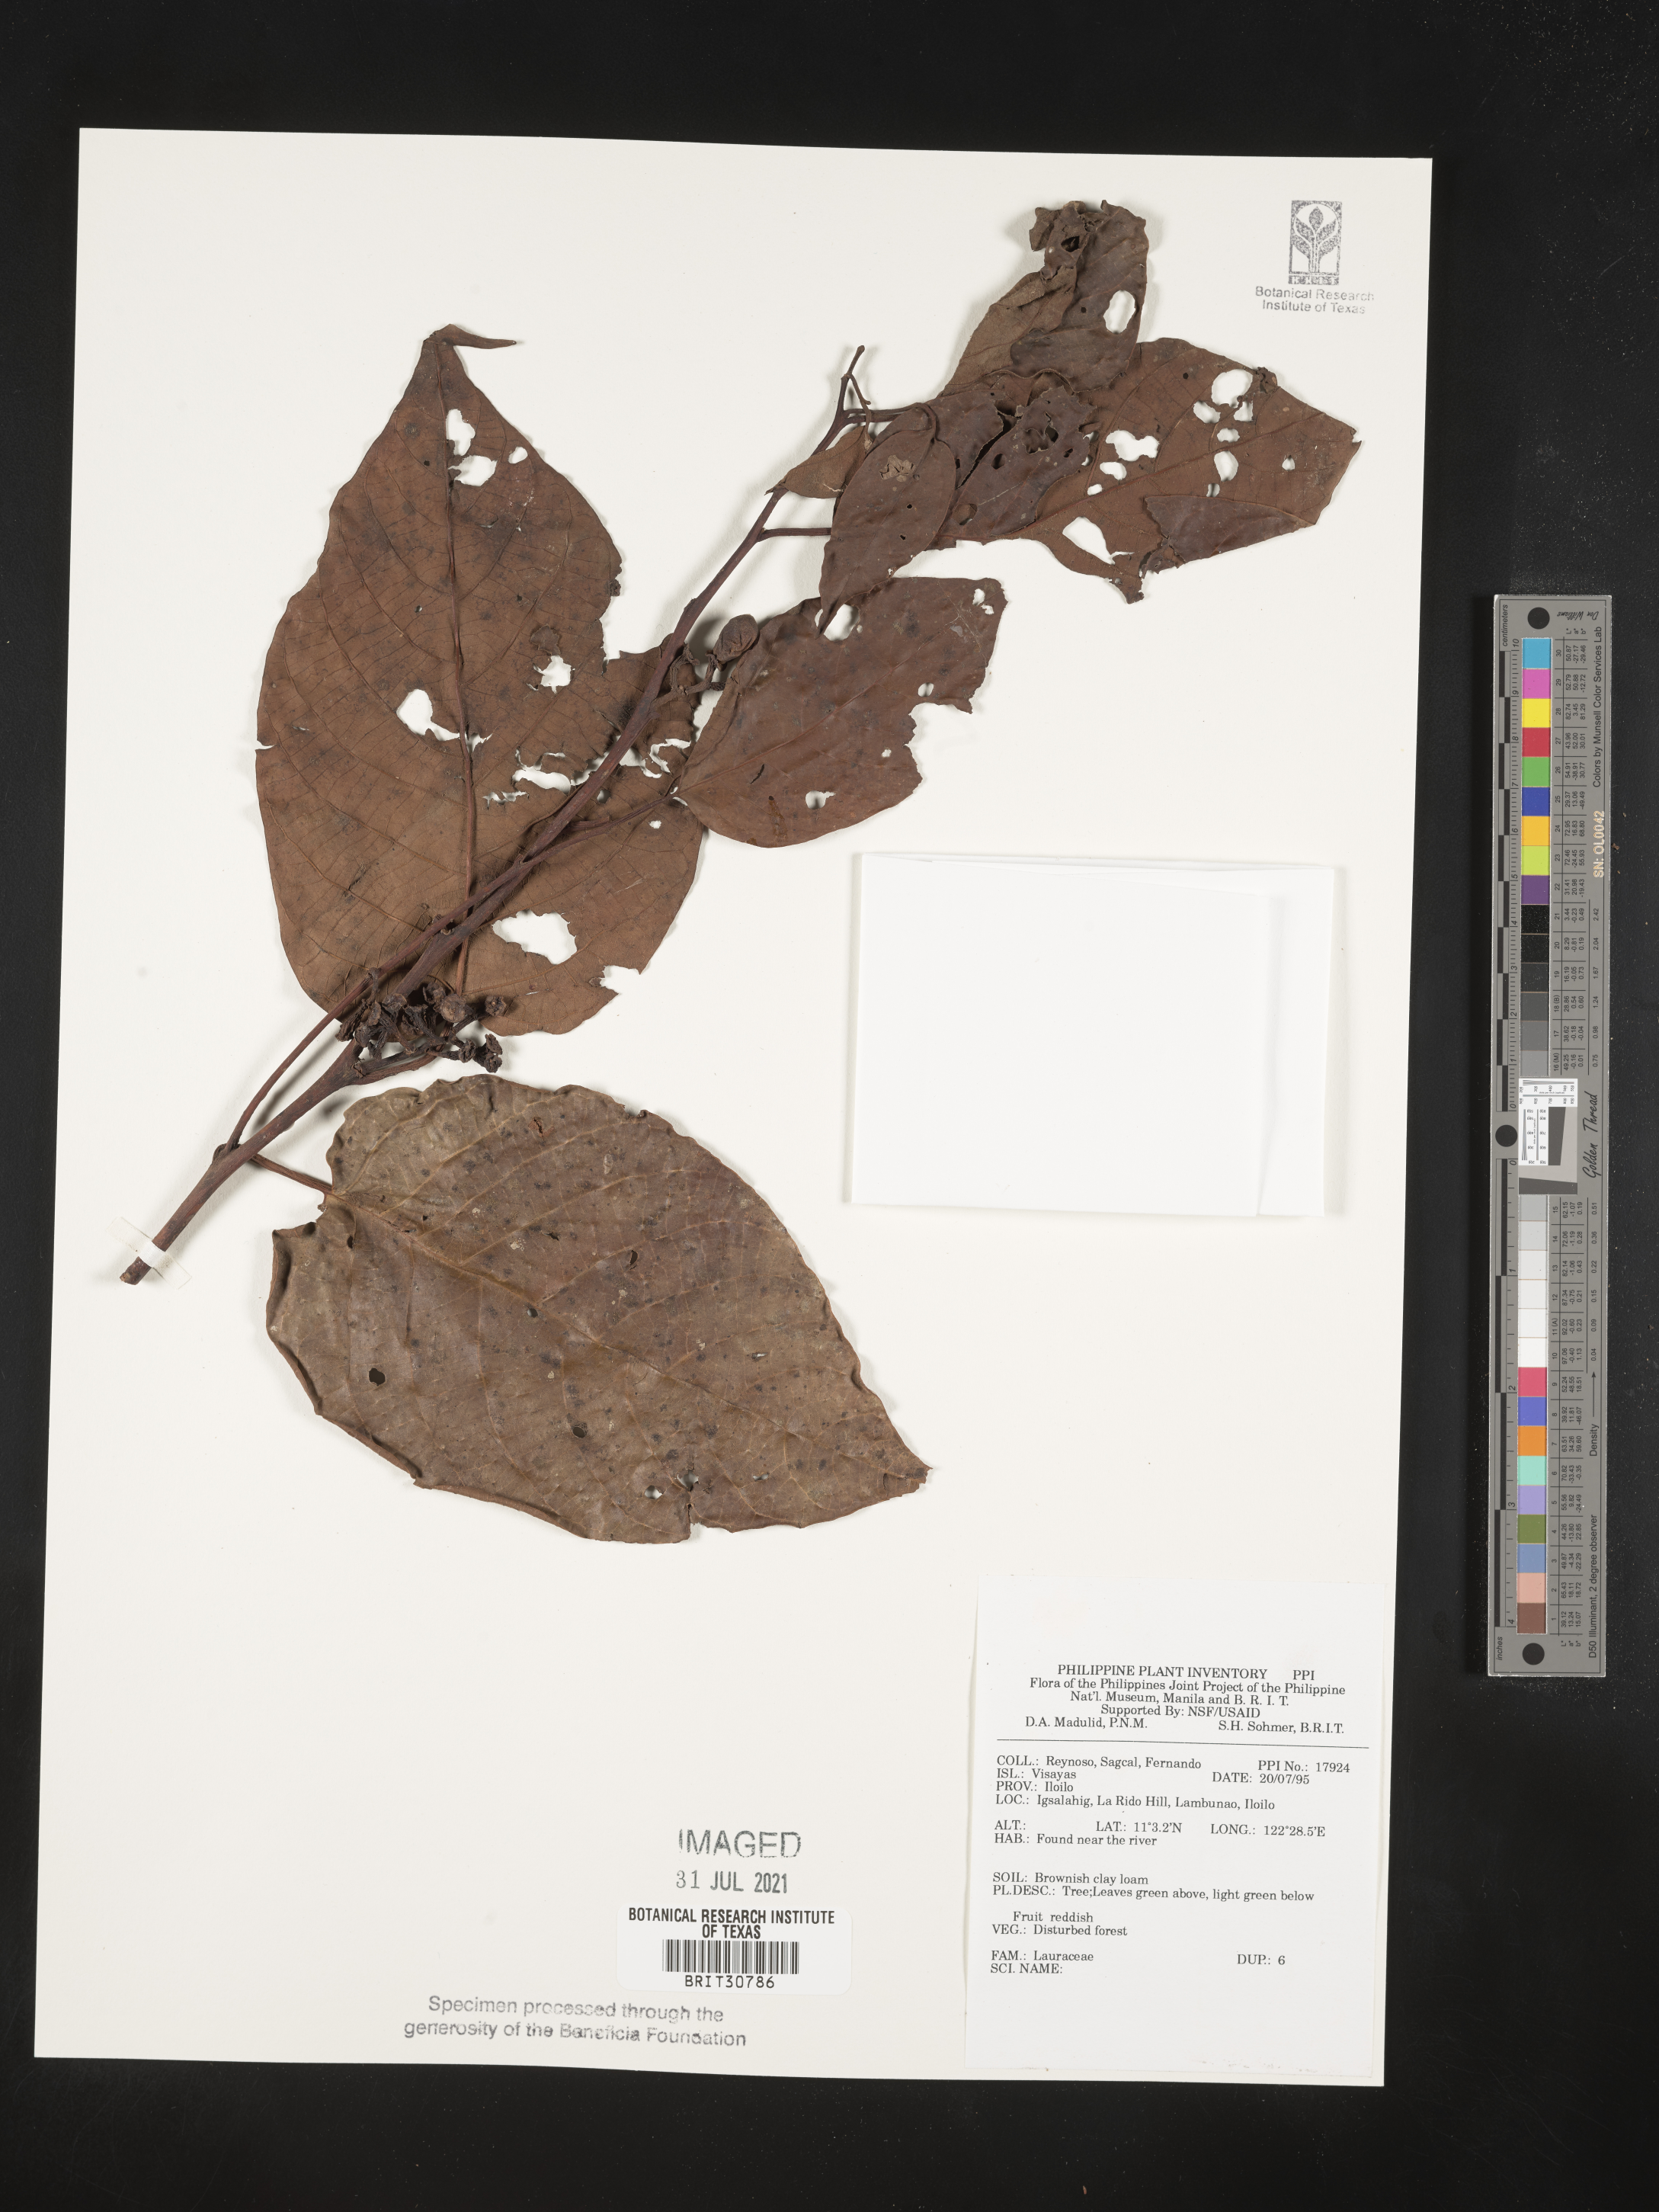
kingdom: Plantae
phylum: Tracheophyta
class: Magnoliopsida
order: Laurales
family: Lauraceae
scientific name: Lauraceae
